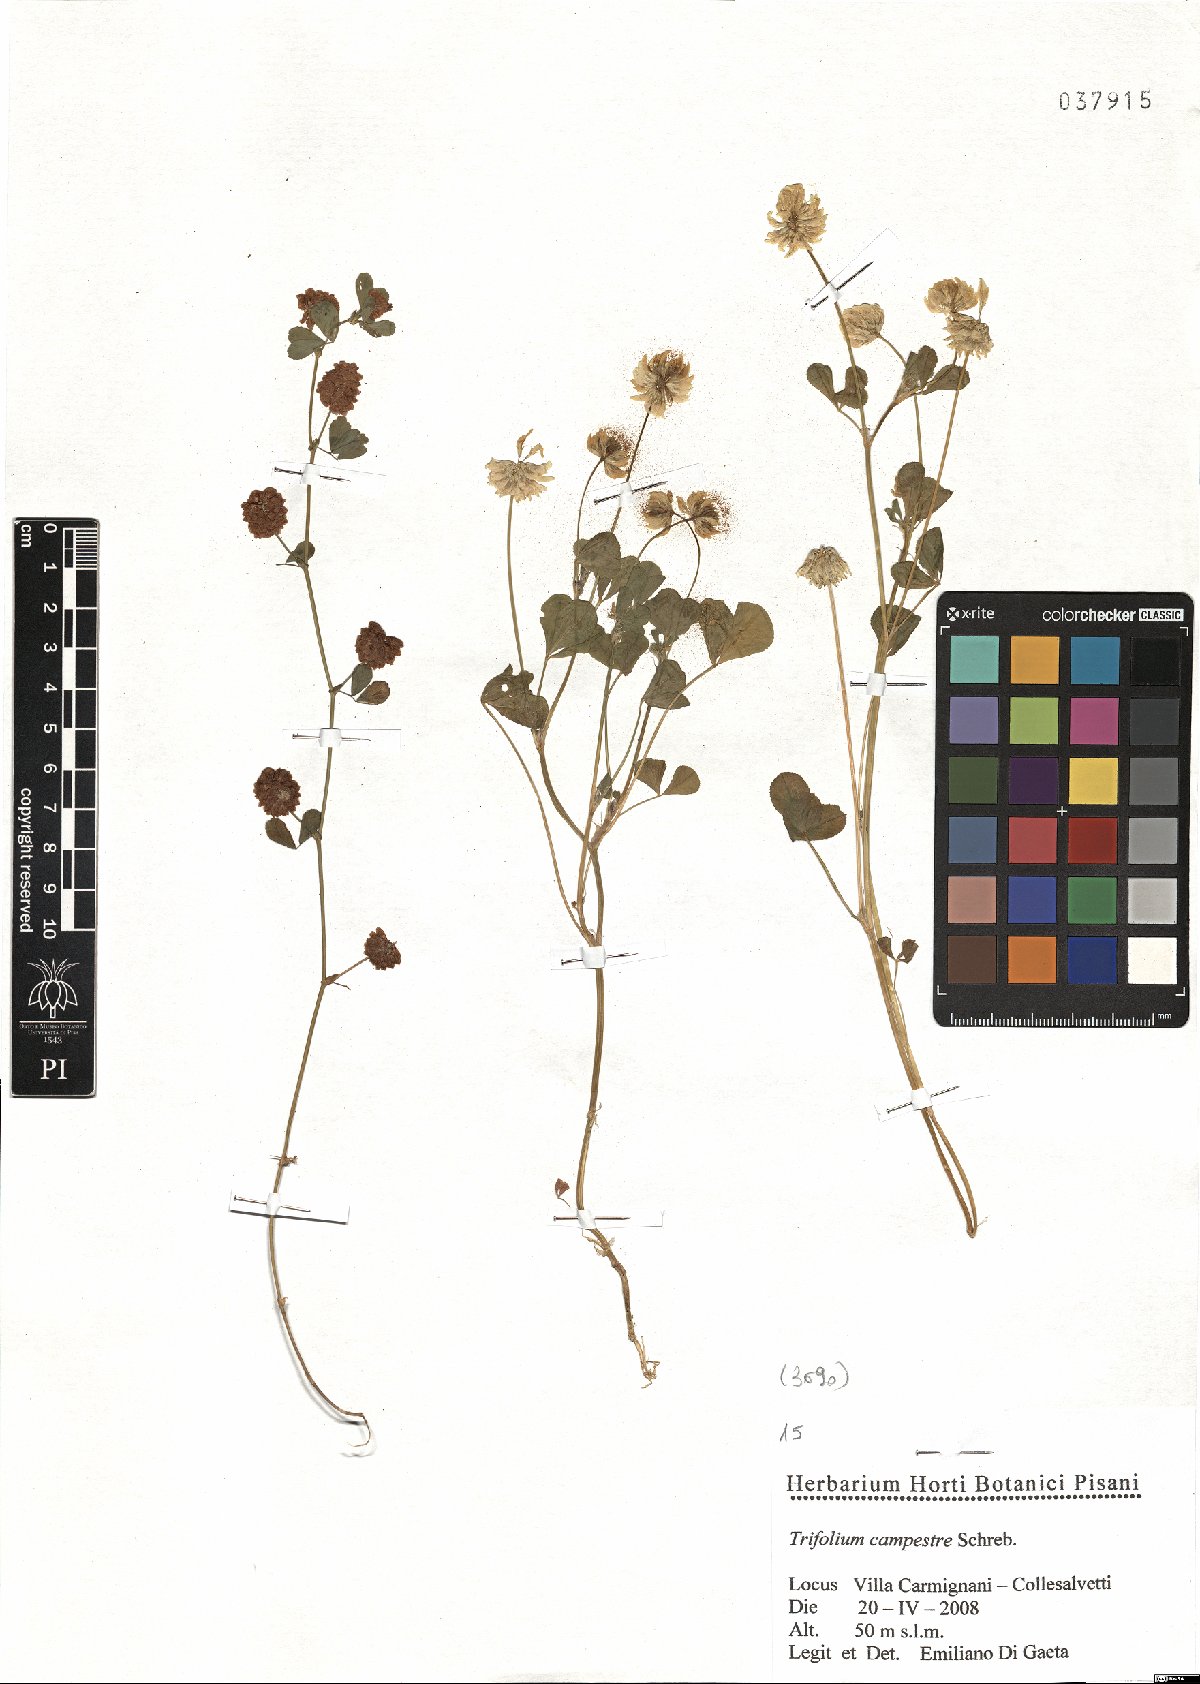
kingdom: Plantae
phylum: Tracheophyta
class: Magnoliopsida
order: Fabales
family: Fabaceae
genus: Trifolium
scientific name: Trifolium campestre
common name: Field clover
